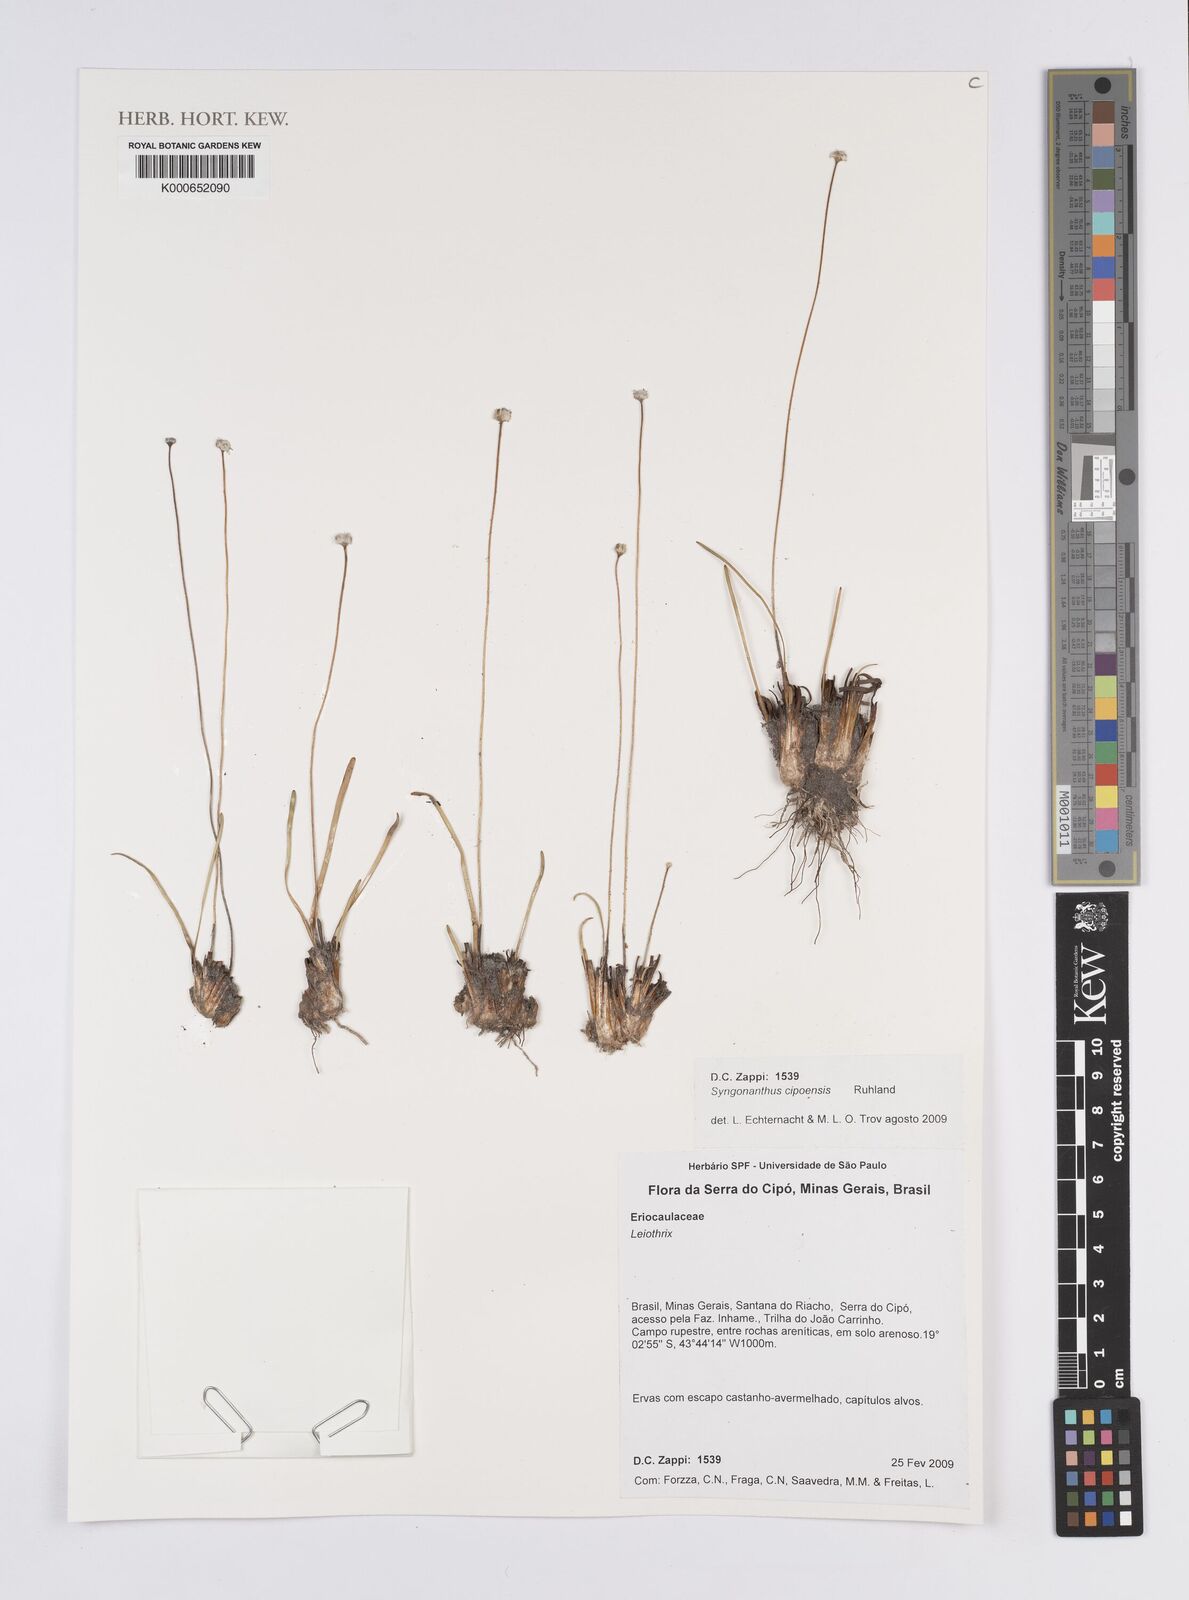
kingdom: Plantae
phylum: Tracheophyta
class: Liliopsida
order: Poales
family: Eriocaulaceae
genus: Comanthera
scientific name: Comanthera cipoensis
